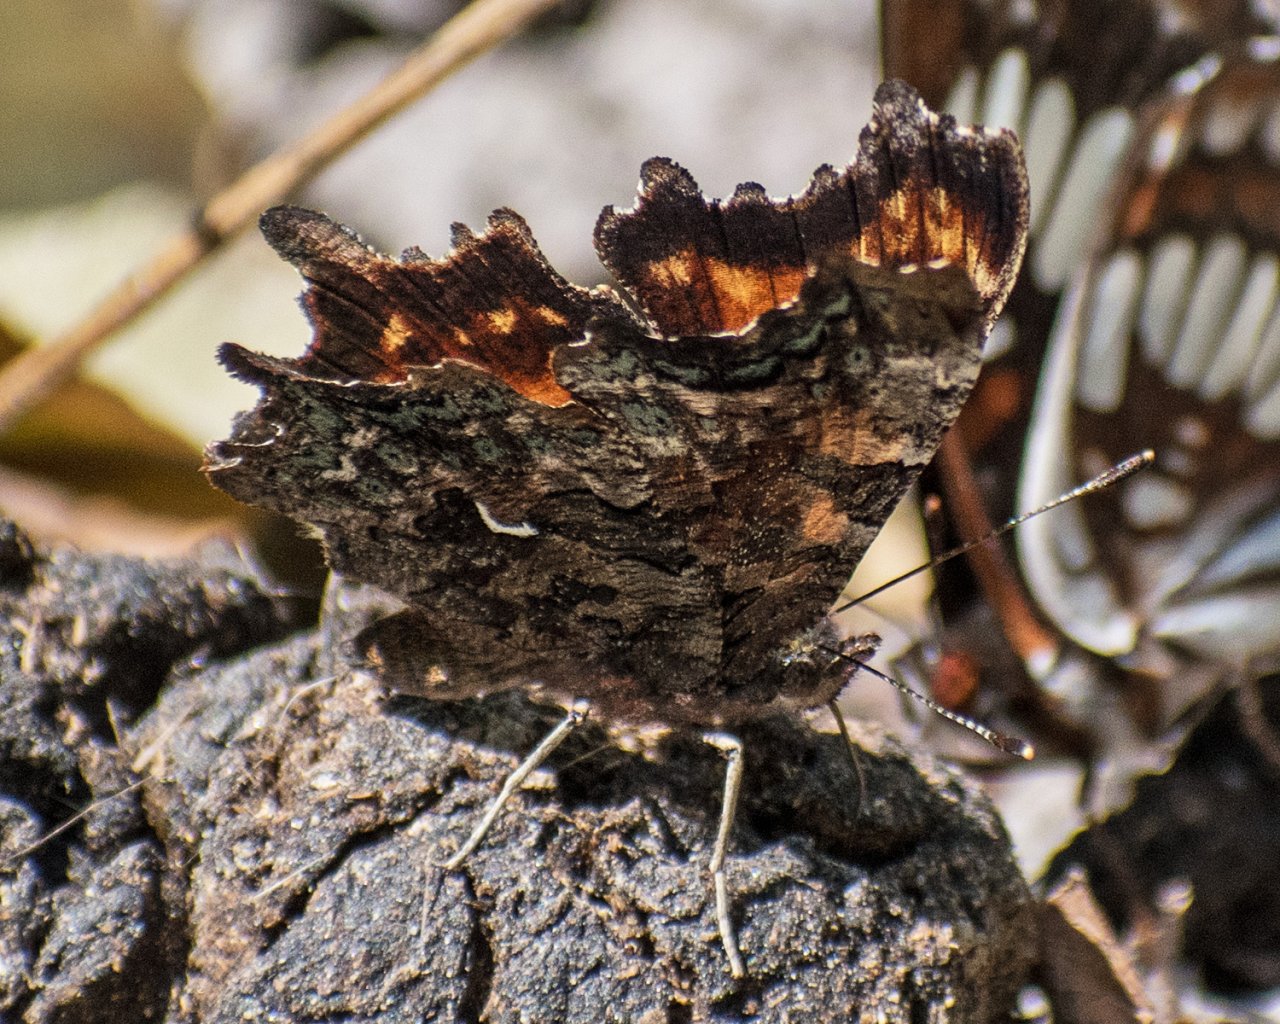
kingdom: Animalia
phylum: Arthropoda
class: Insecta
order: Lepidoptera
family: Nymphalidae
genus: Polygonia
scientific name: Polygonia faunus
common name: Green Comma
